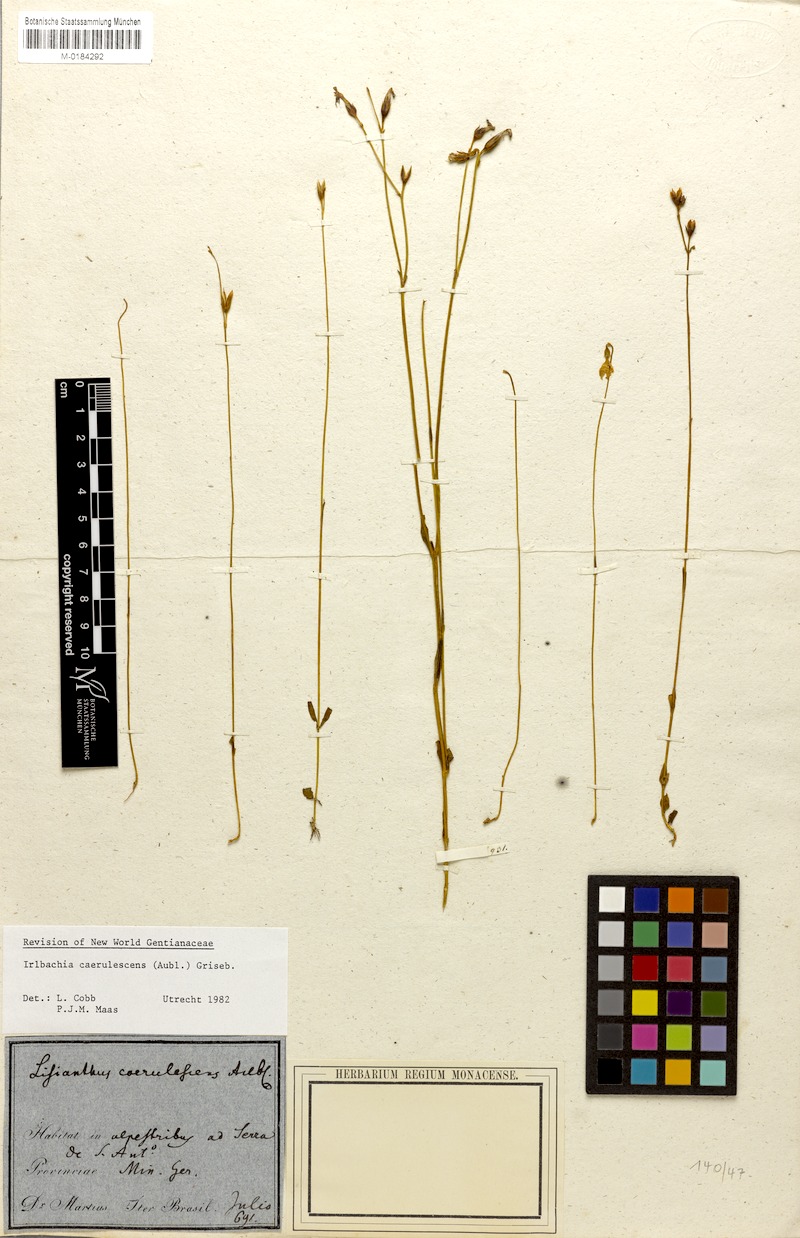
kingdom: Plantae
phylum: Tracheophyta
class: Magnoliopsida
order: Gentianales
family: Gentianaceae
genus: Tetrapollinia
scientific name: Tetrapollinia caerulescens
